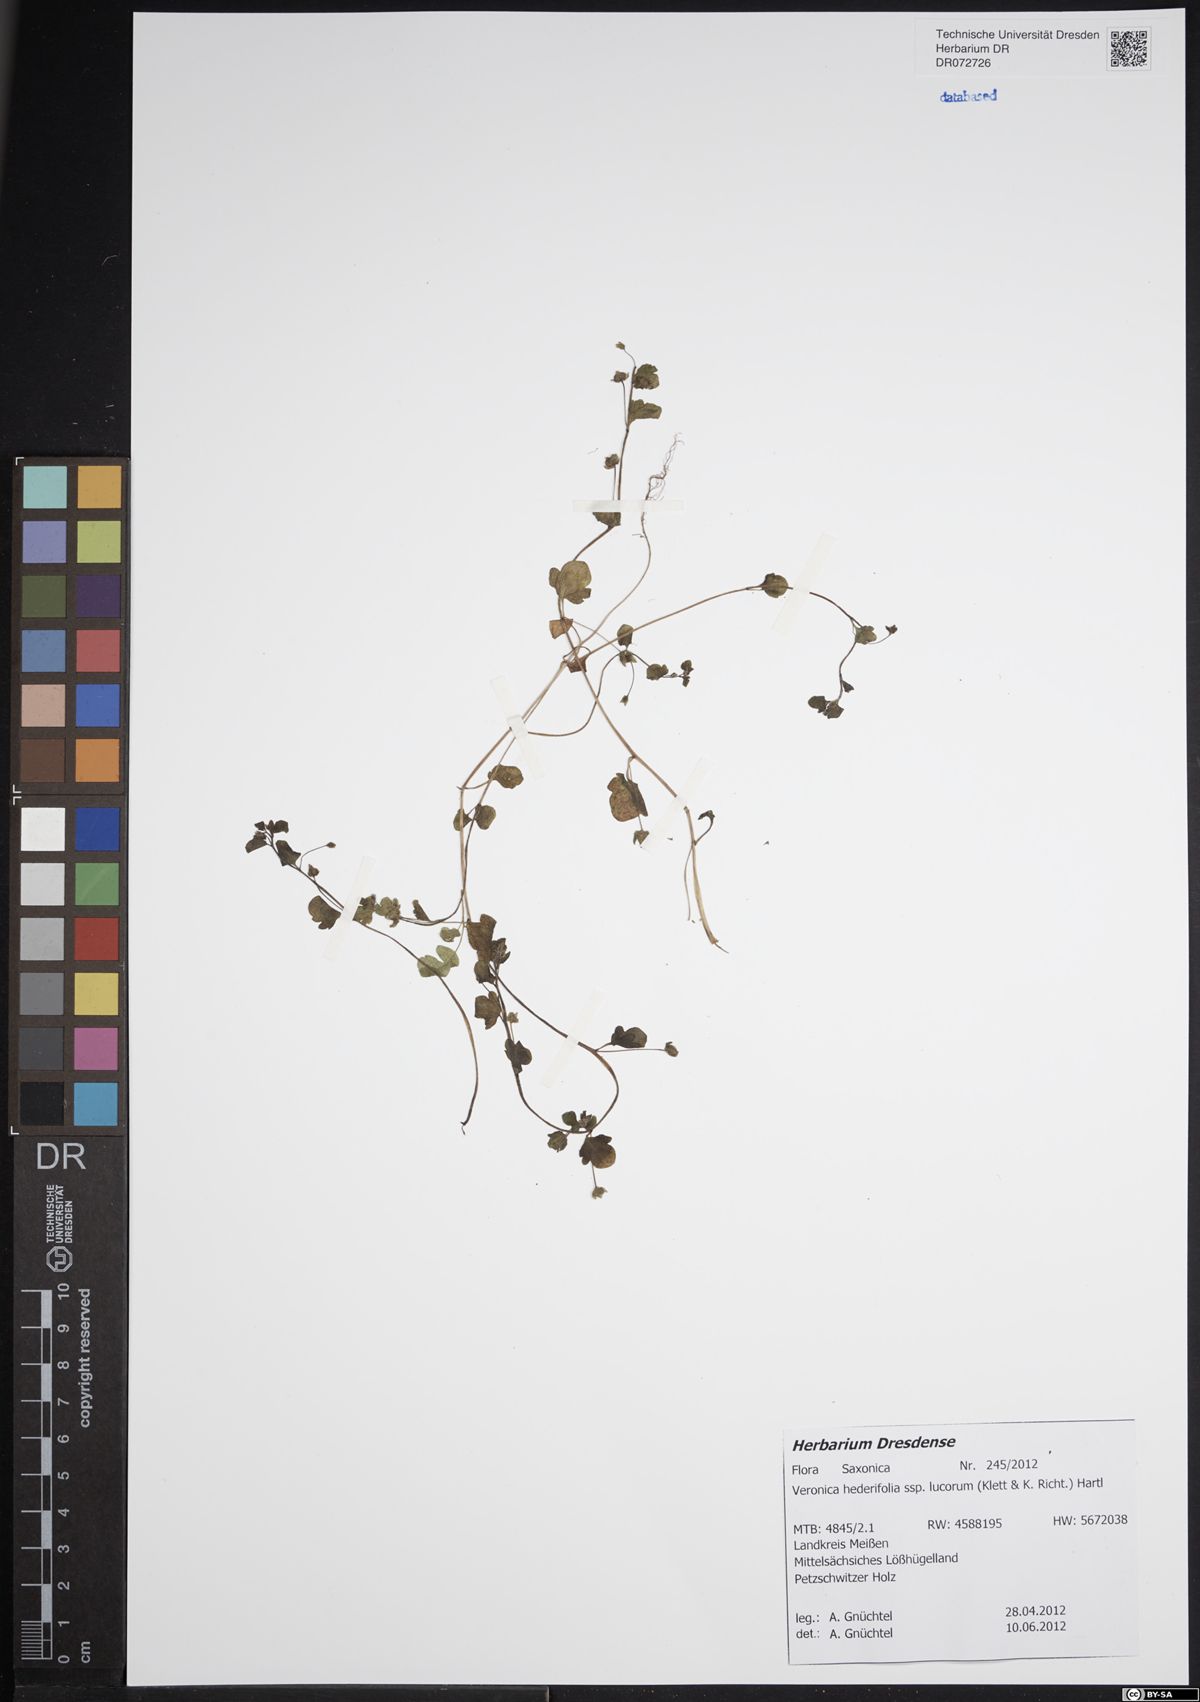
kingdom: Plantae
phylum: Tracheophyta
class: Magnoliopsida
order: Lamiales
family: Plantaginaceae
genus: Veronica
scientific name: Veronica hederifolia
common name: Ivy-leaved speedwell
